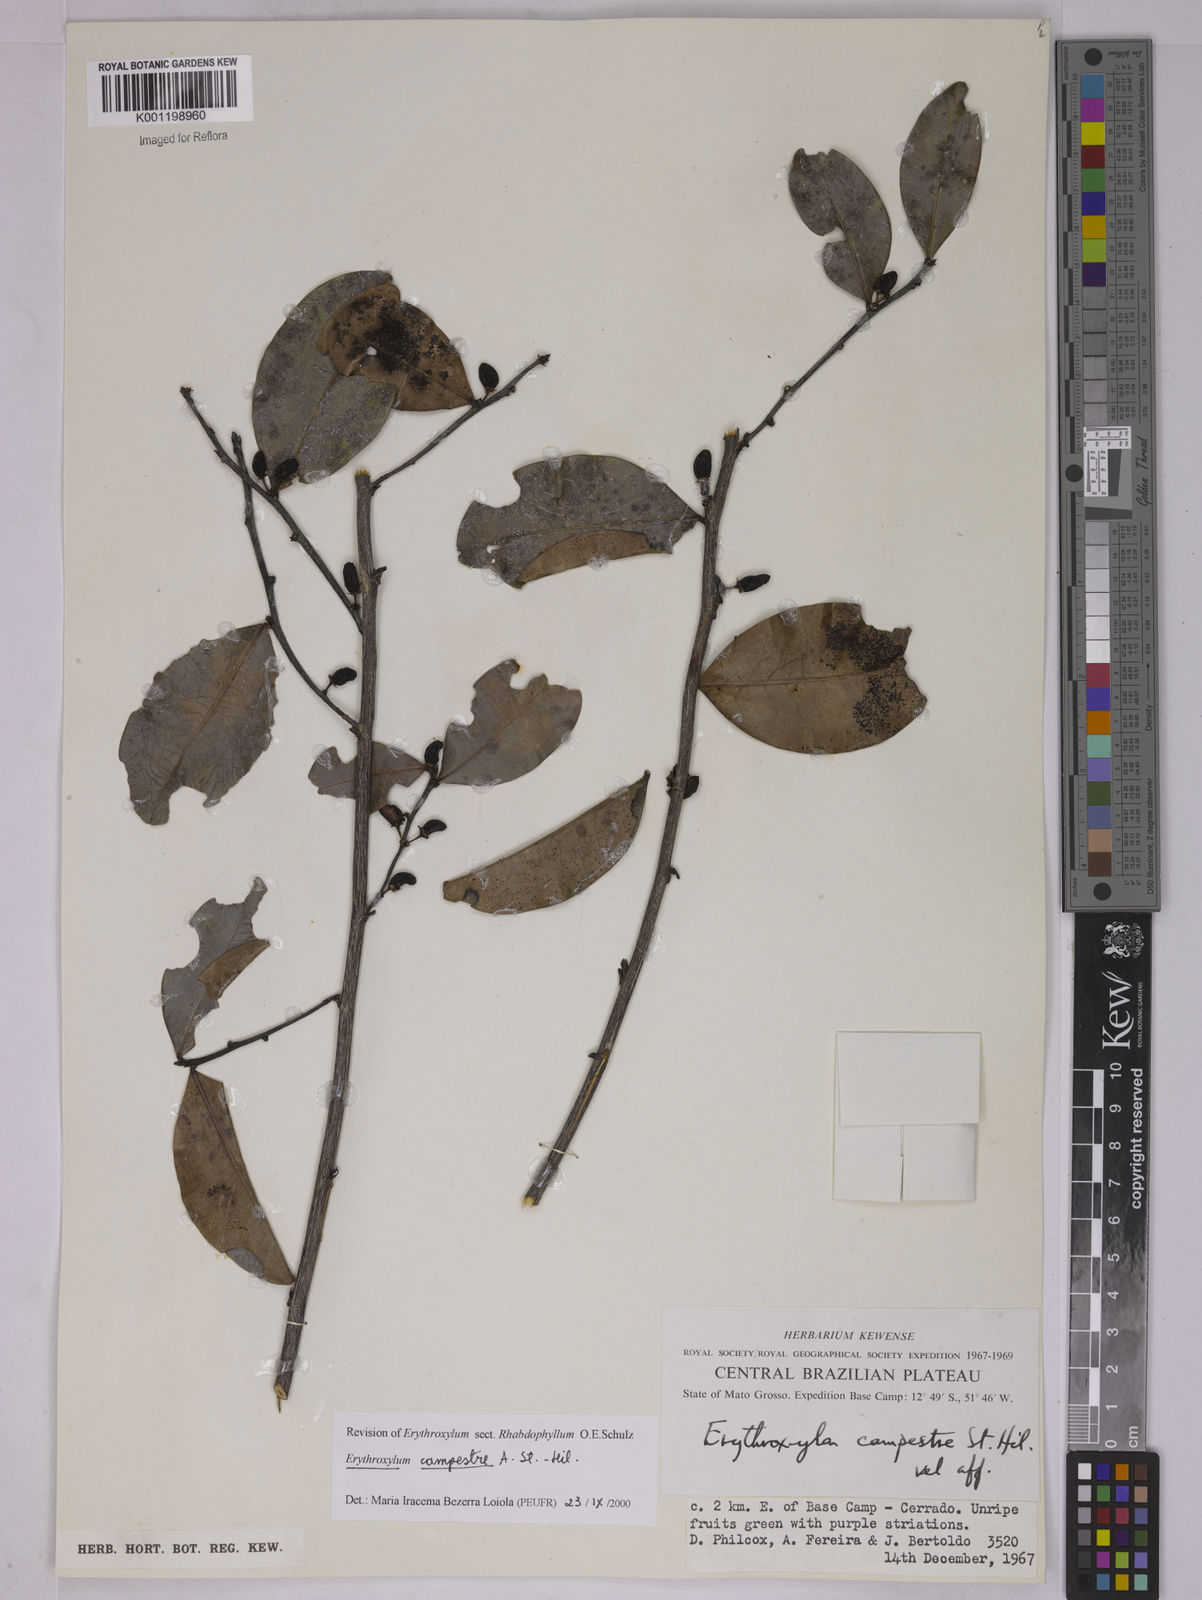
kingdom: Plantae
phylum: Tracheophyta
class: Magnoliopsida
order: Malpighiales
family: Erythroxylaceae
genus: Erythroxylum
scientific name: Erythroxylum campestre
